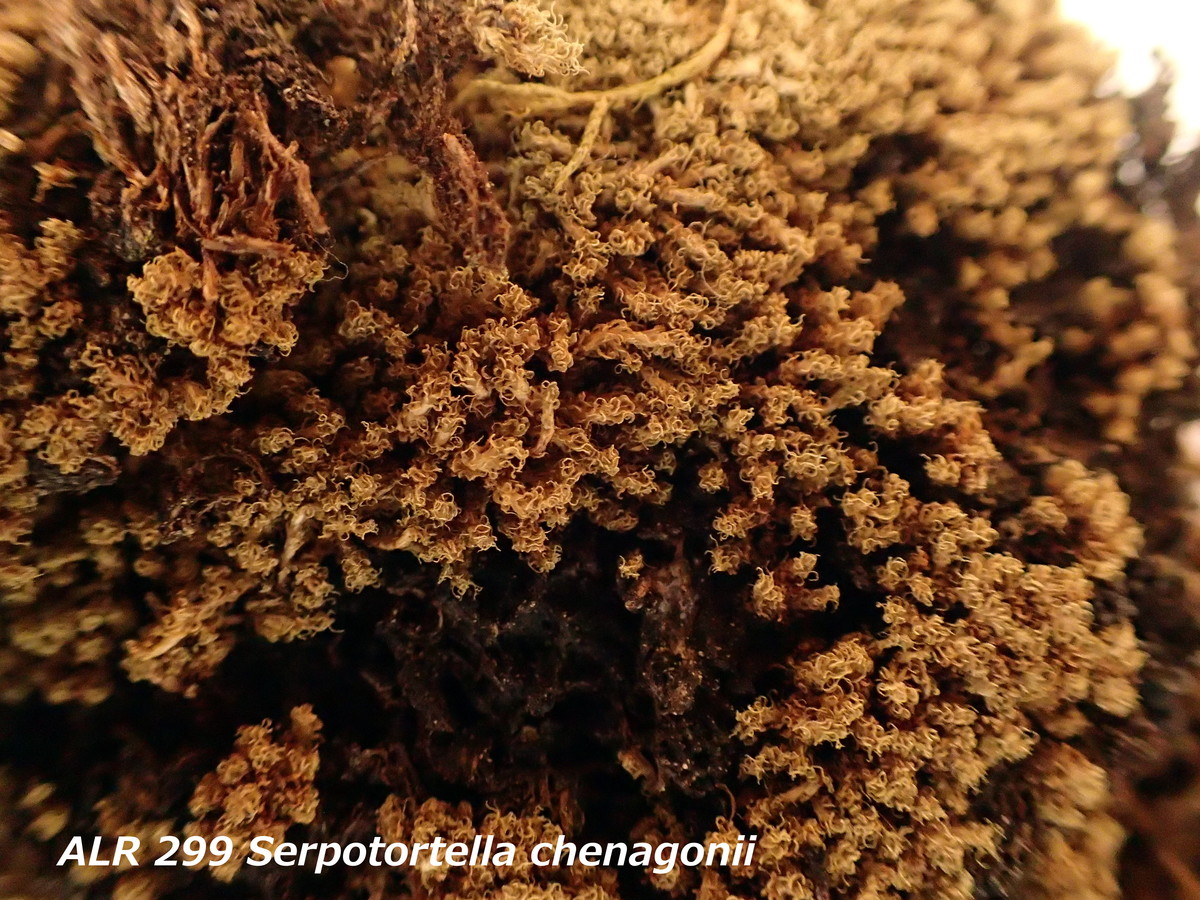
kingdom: Plantae
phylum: Bryophyta
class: Bryopsida
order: Dicranales
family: Serpotortellaceae
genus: Serpotortella
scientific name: Serpotortella chenagonii
